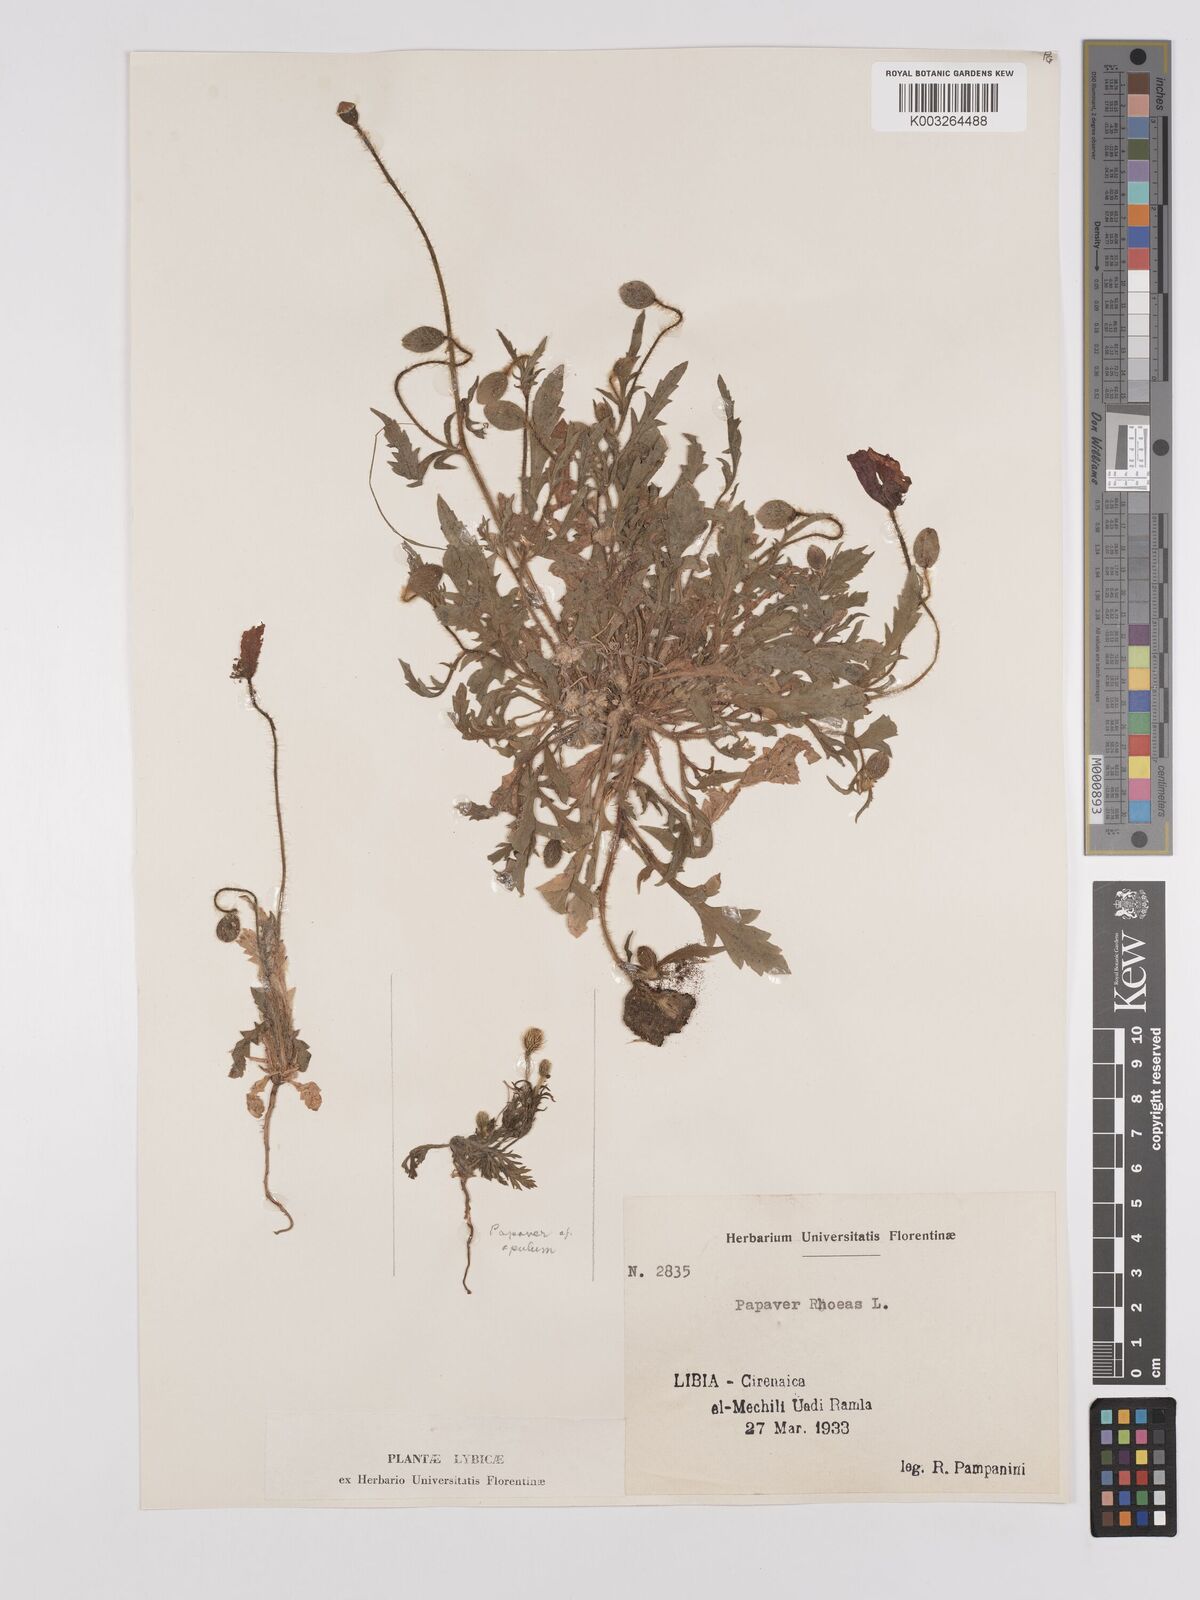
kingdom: Plantae
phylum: Tracheophyta
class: Magnoliopsida
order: Ranunculales
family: Papaveraceae
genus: Papaver
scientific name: Papaver rhoeas
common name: Corn poppy
